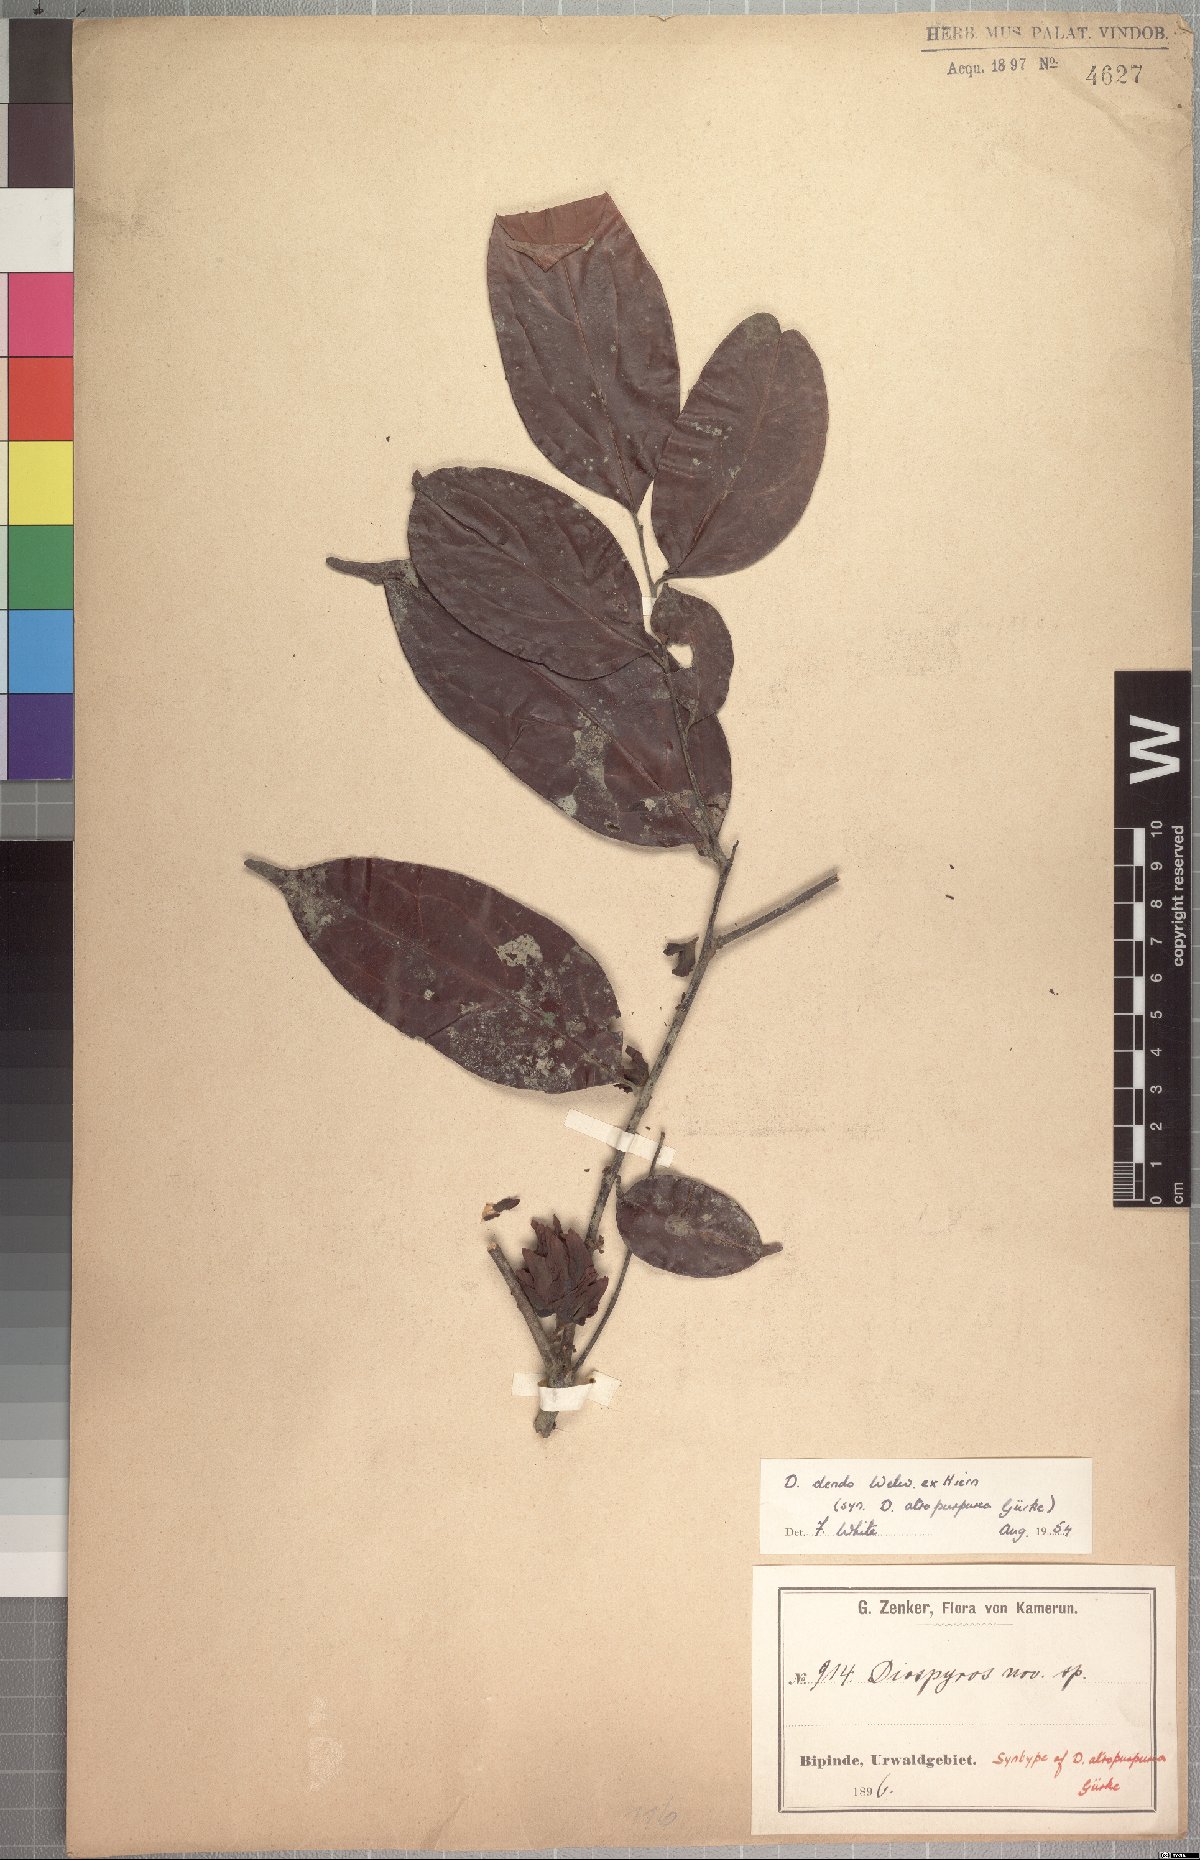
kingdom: Plantae
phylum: Tracheophyta
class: Magnoliopsida
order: Ericales
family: Ebenaceae
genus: Diospyros
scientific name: Diospyros dendo
